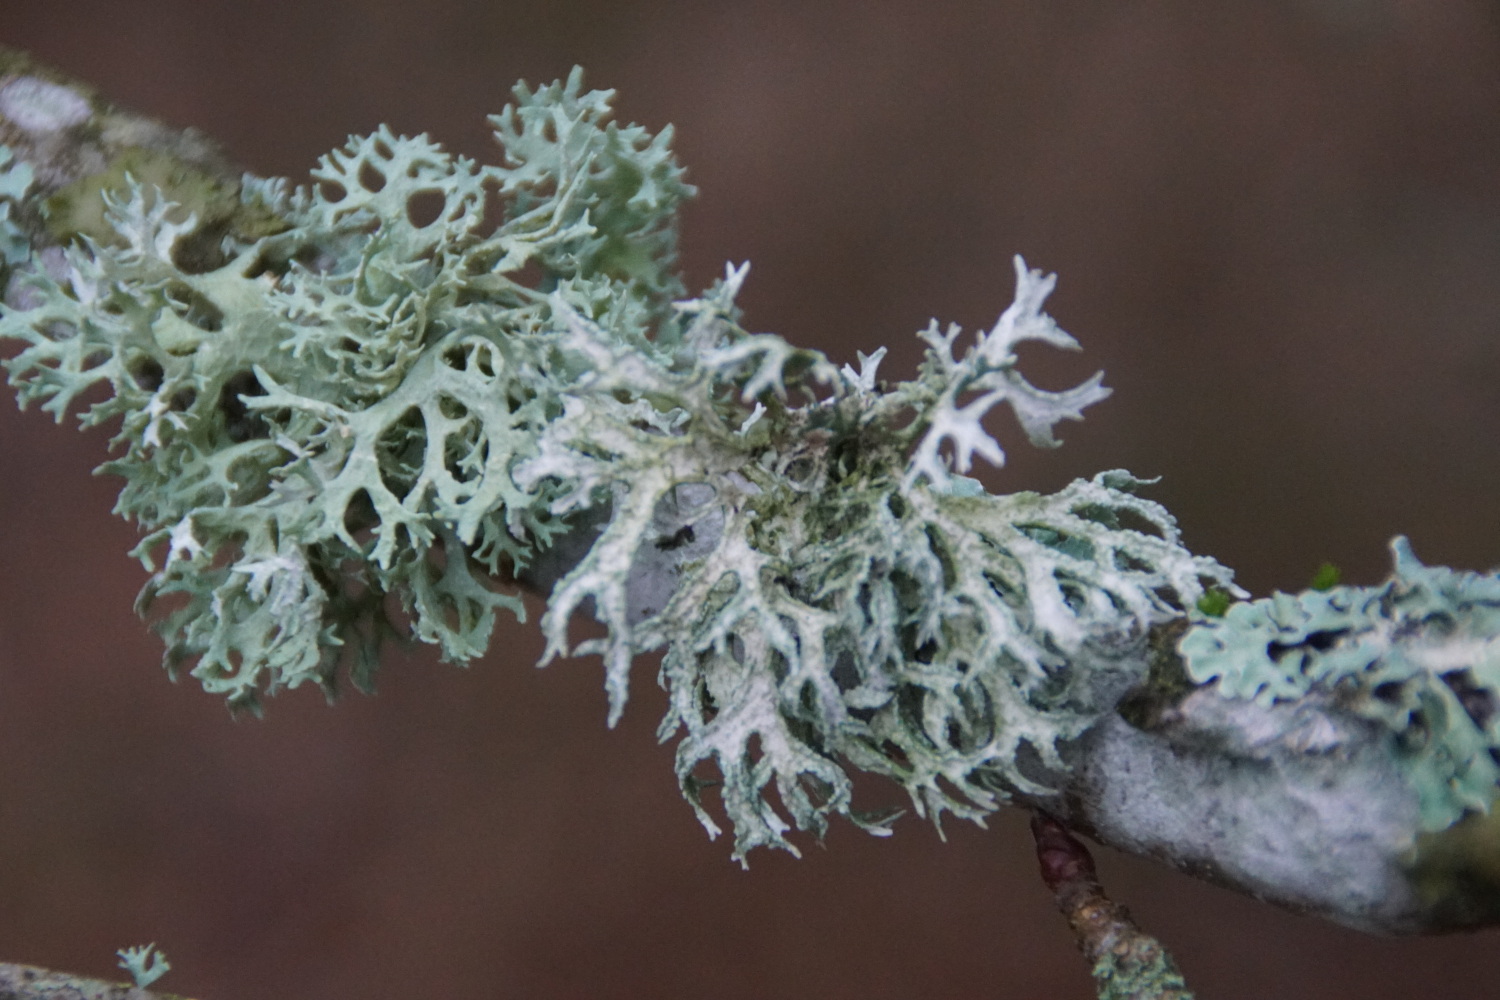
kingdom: Fungi
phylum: Ascomycota
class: Lecanoromycetes
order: Lecanorales
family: Parmeliaceae
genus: Evernia
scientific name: Evernia prunastri
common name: almindelig slåenlav
